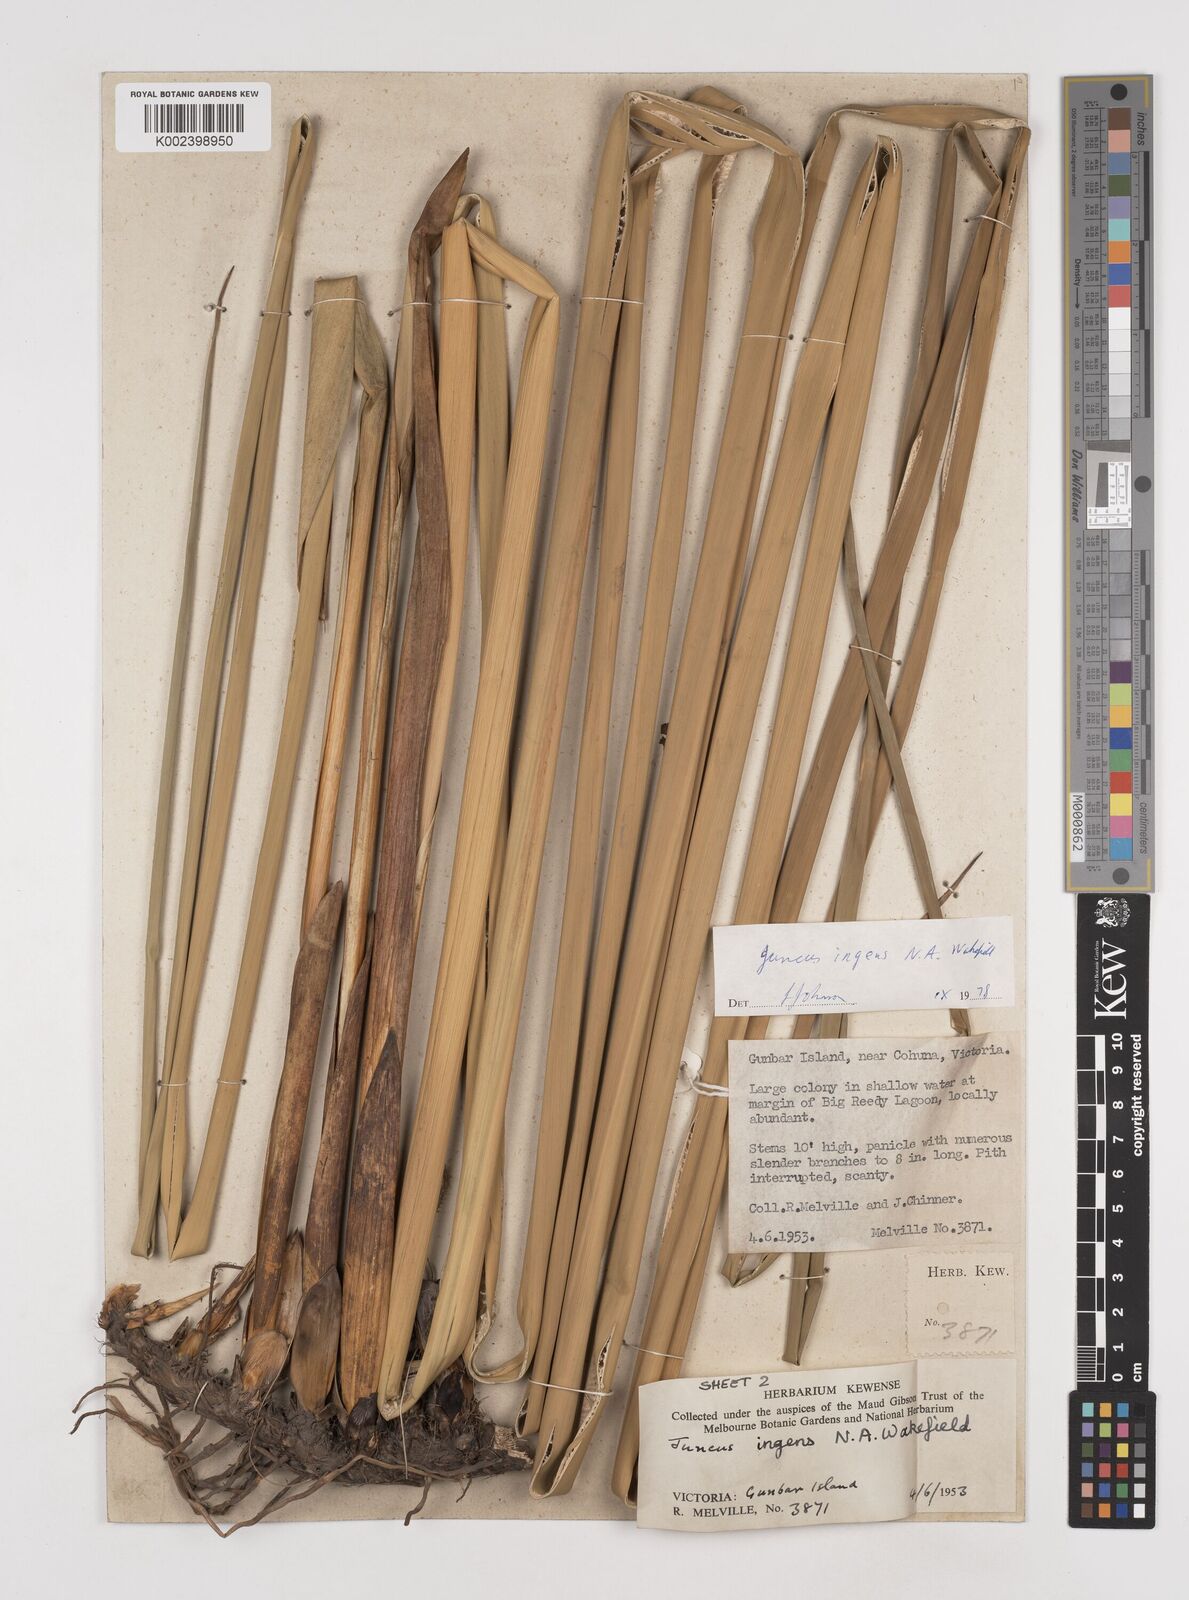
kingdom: Plantae
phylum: Tracheophyta
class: Liliopsida
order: Poales
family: Juncaceae
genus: Juncus
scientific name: Juncus ingens
